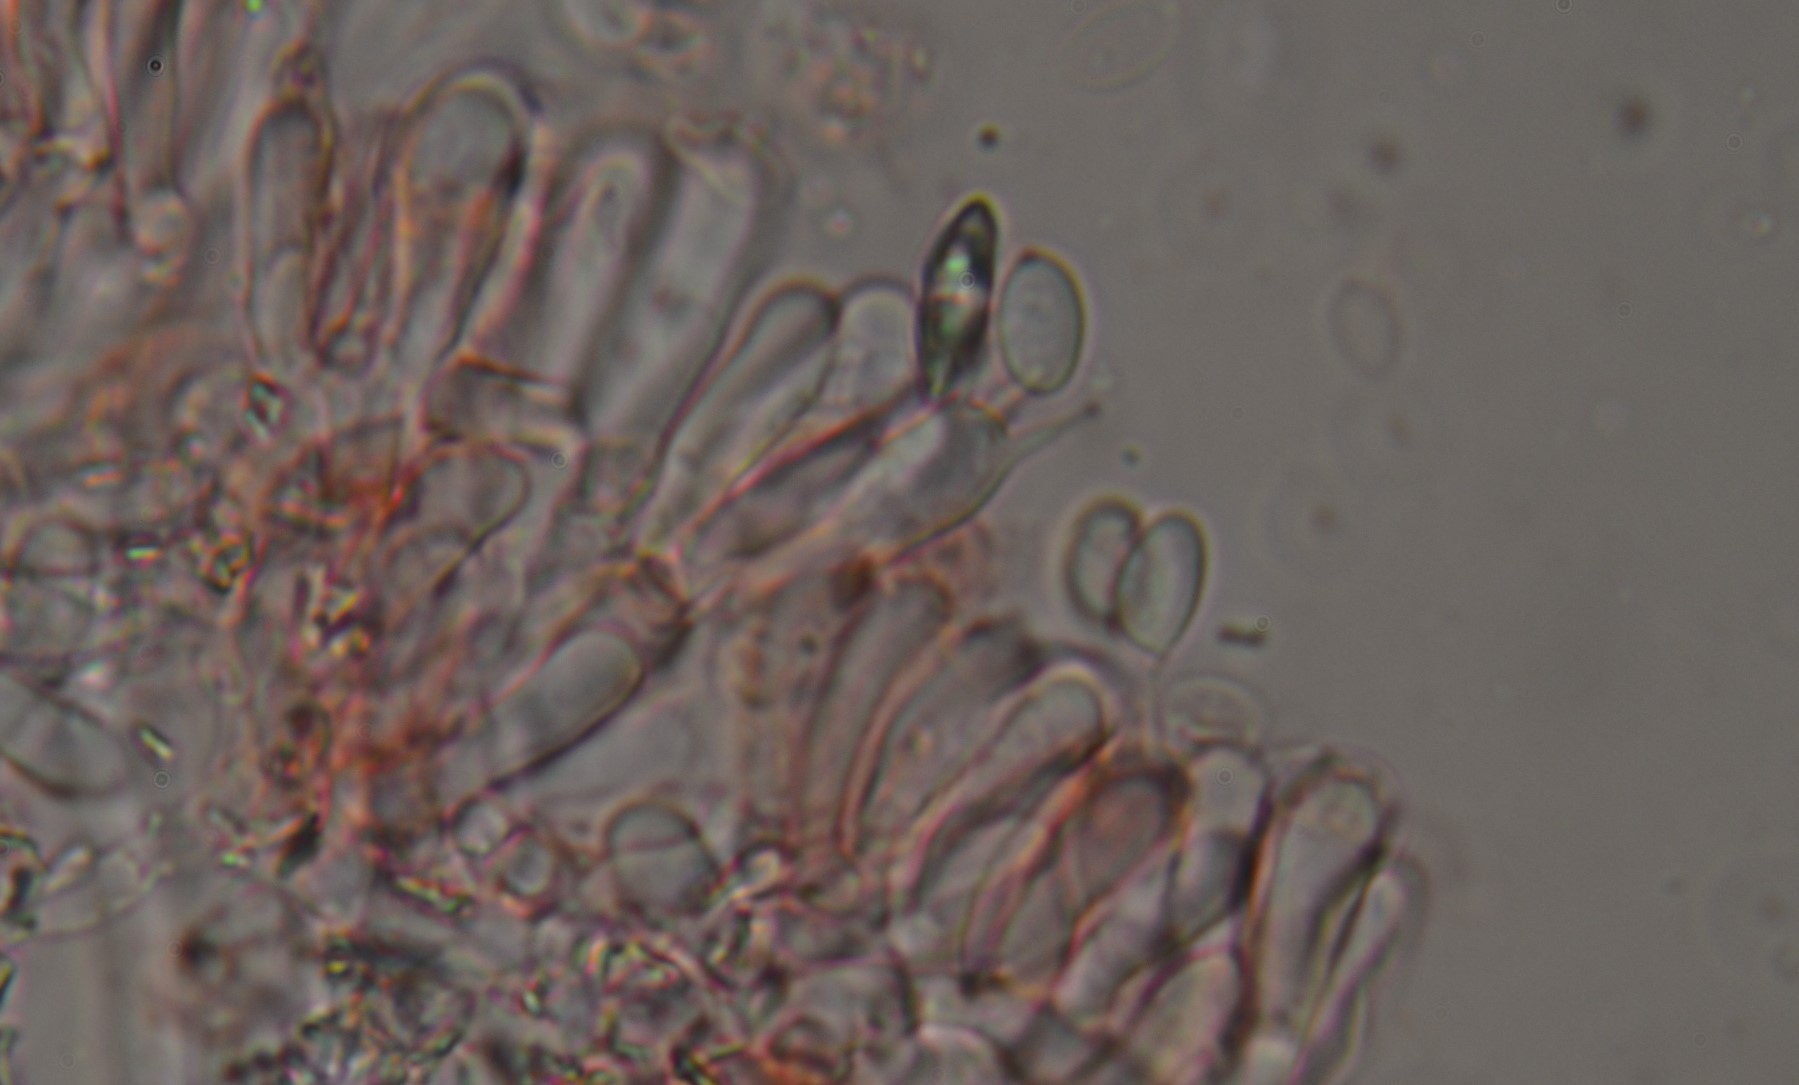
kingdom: Fungi
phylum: Basidiomycota
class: Agaricomycetes
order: Atheliales
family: Atheliaceae
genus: Athelia
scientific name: Athelia epiphylla
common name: almindelig barkhinde
